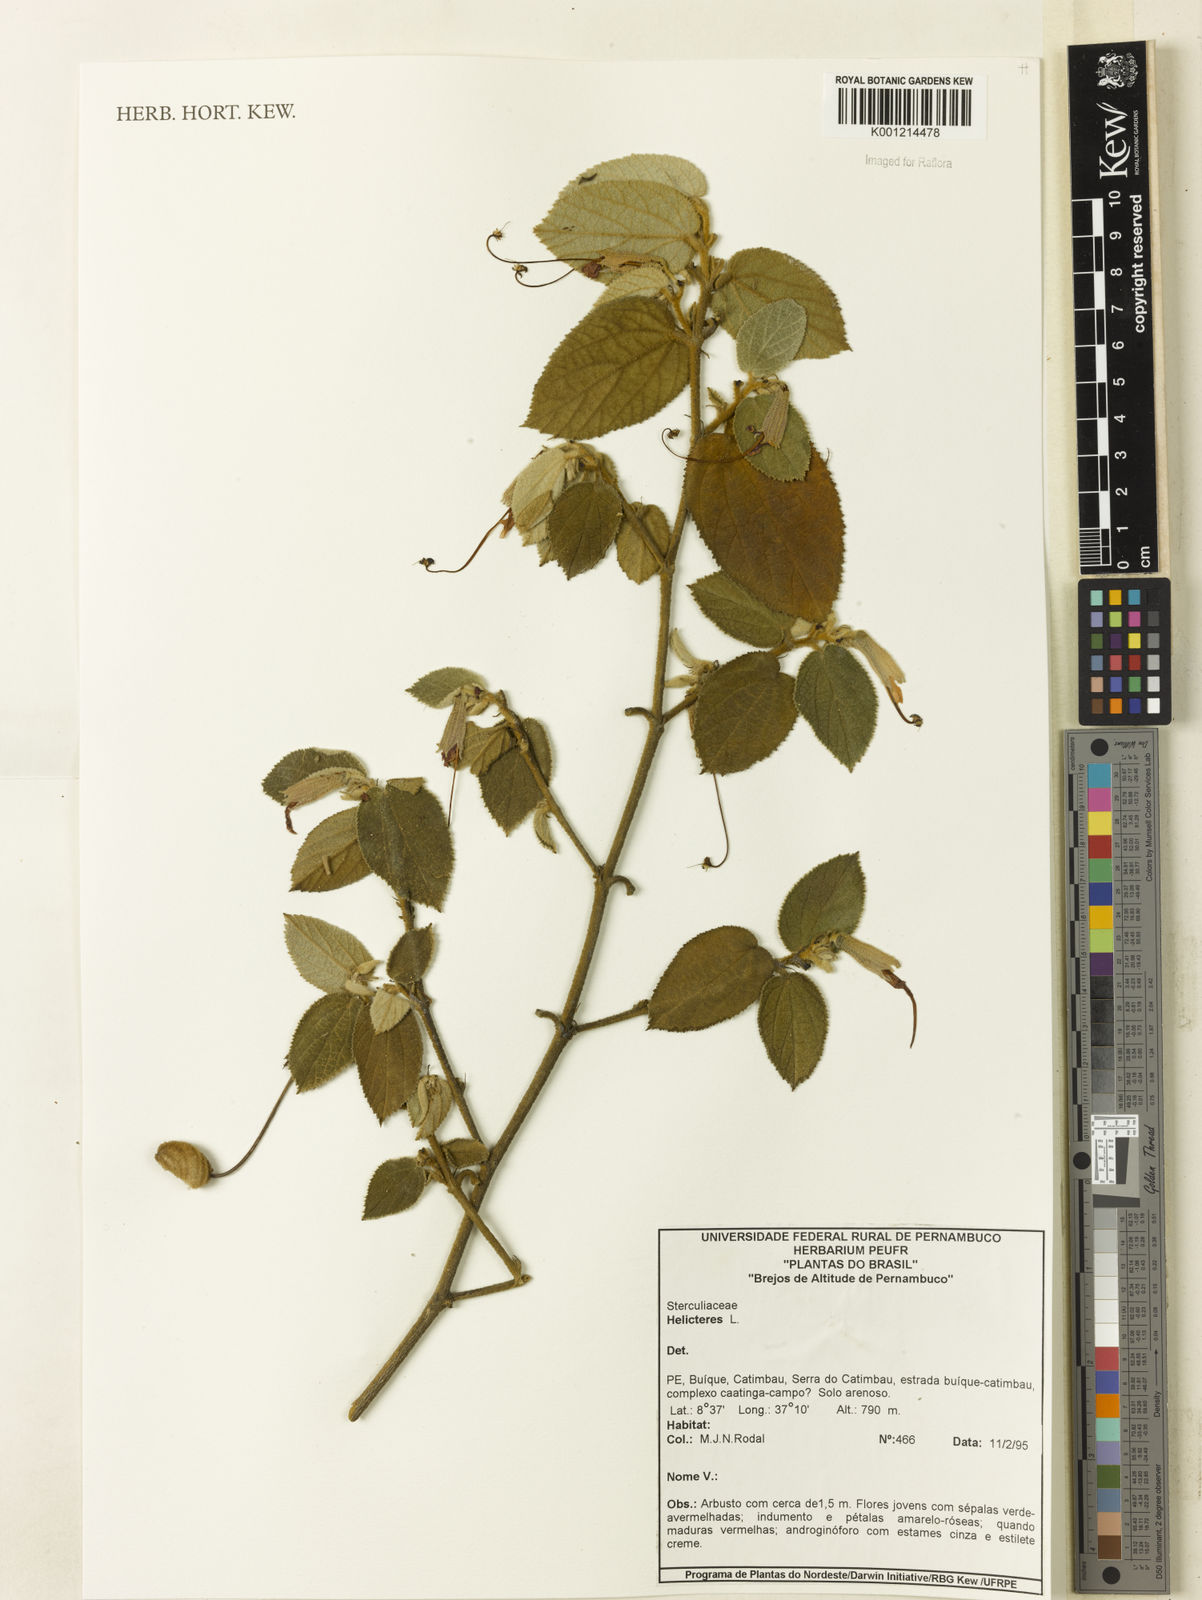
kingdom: Plantae
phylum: Tracheophyta
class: Magnoliopsida
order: Malvales
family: Malvaceae
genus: Helicteres
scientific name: Helicteres
